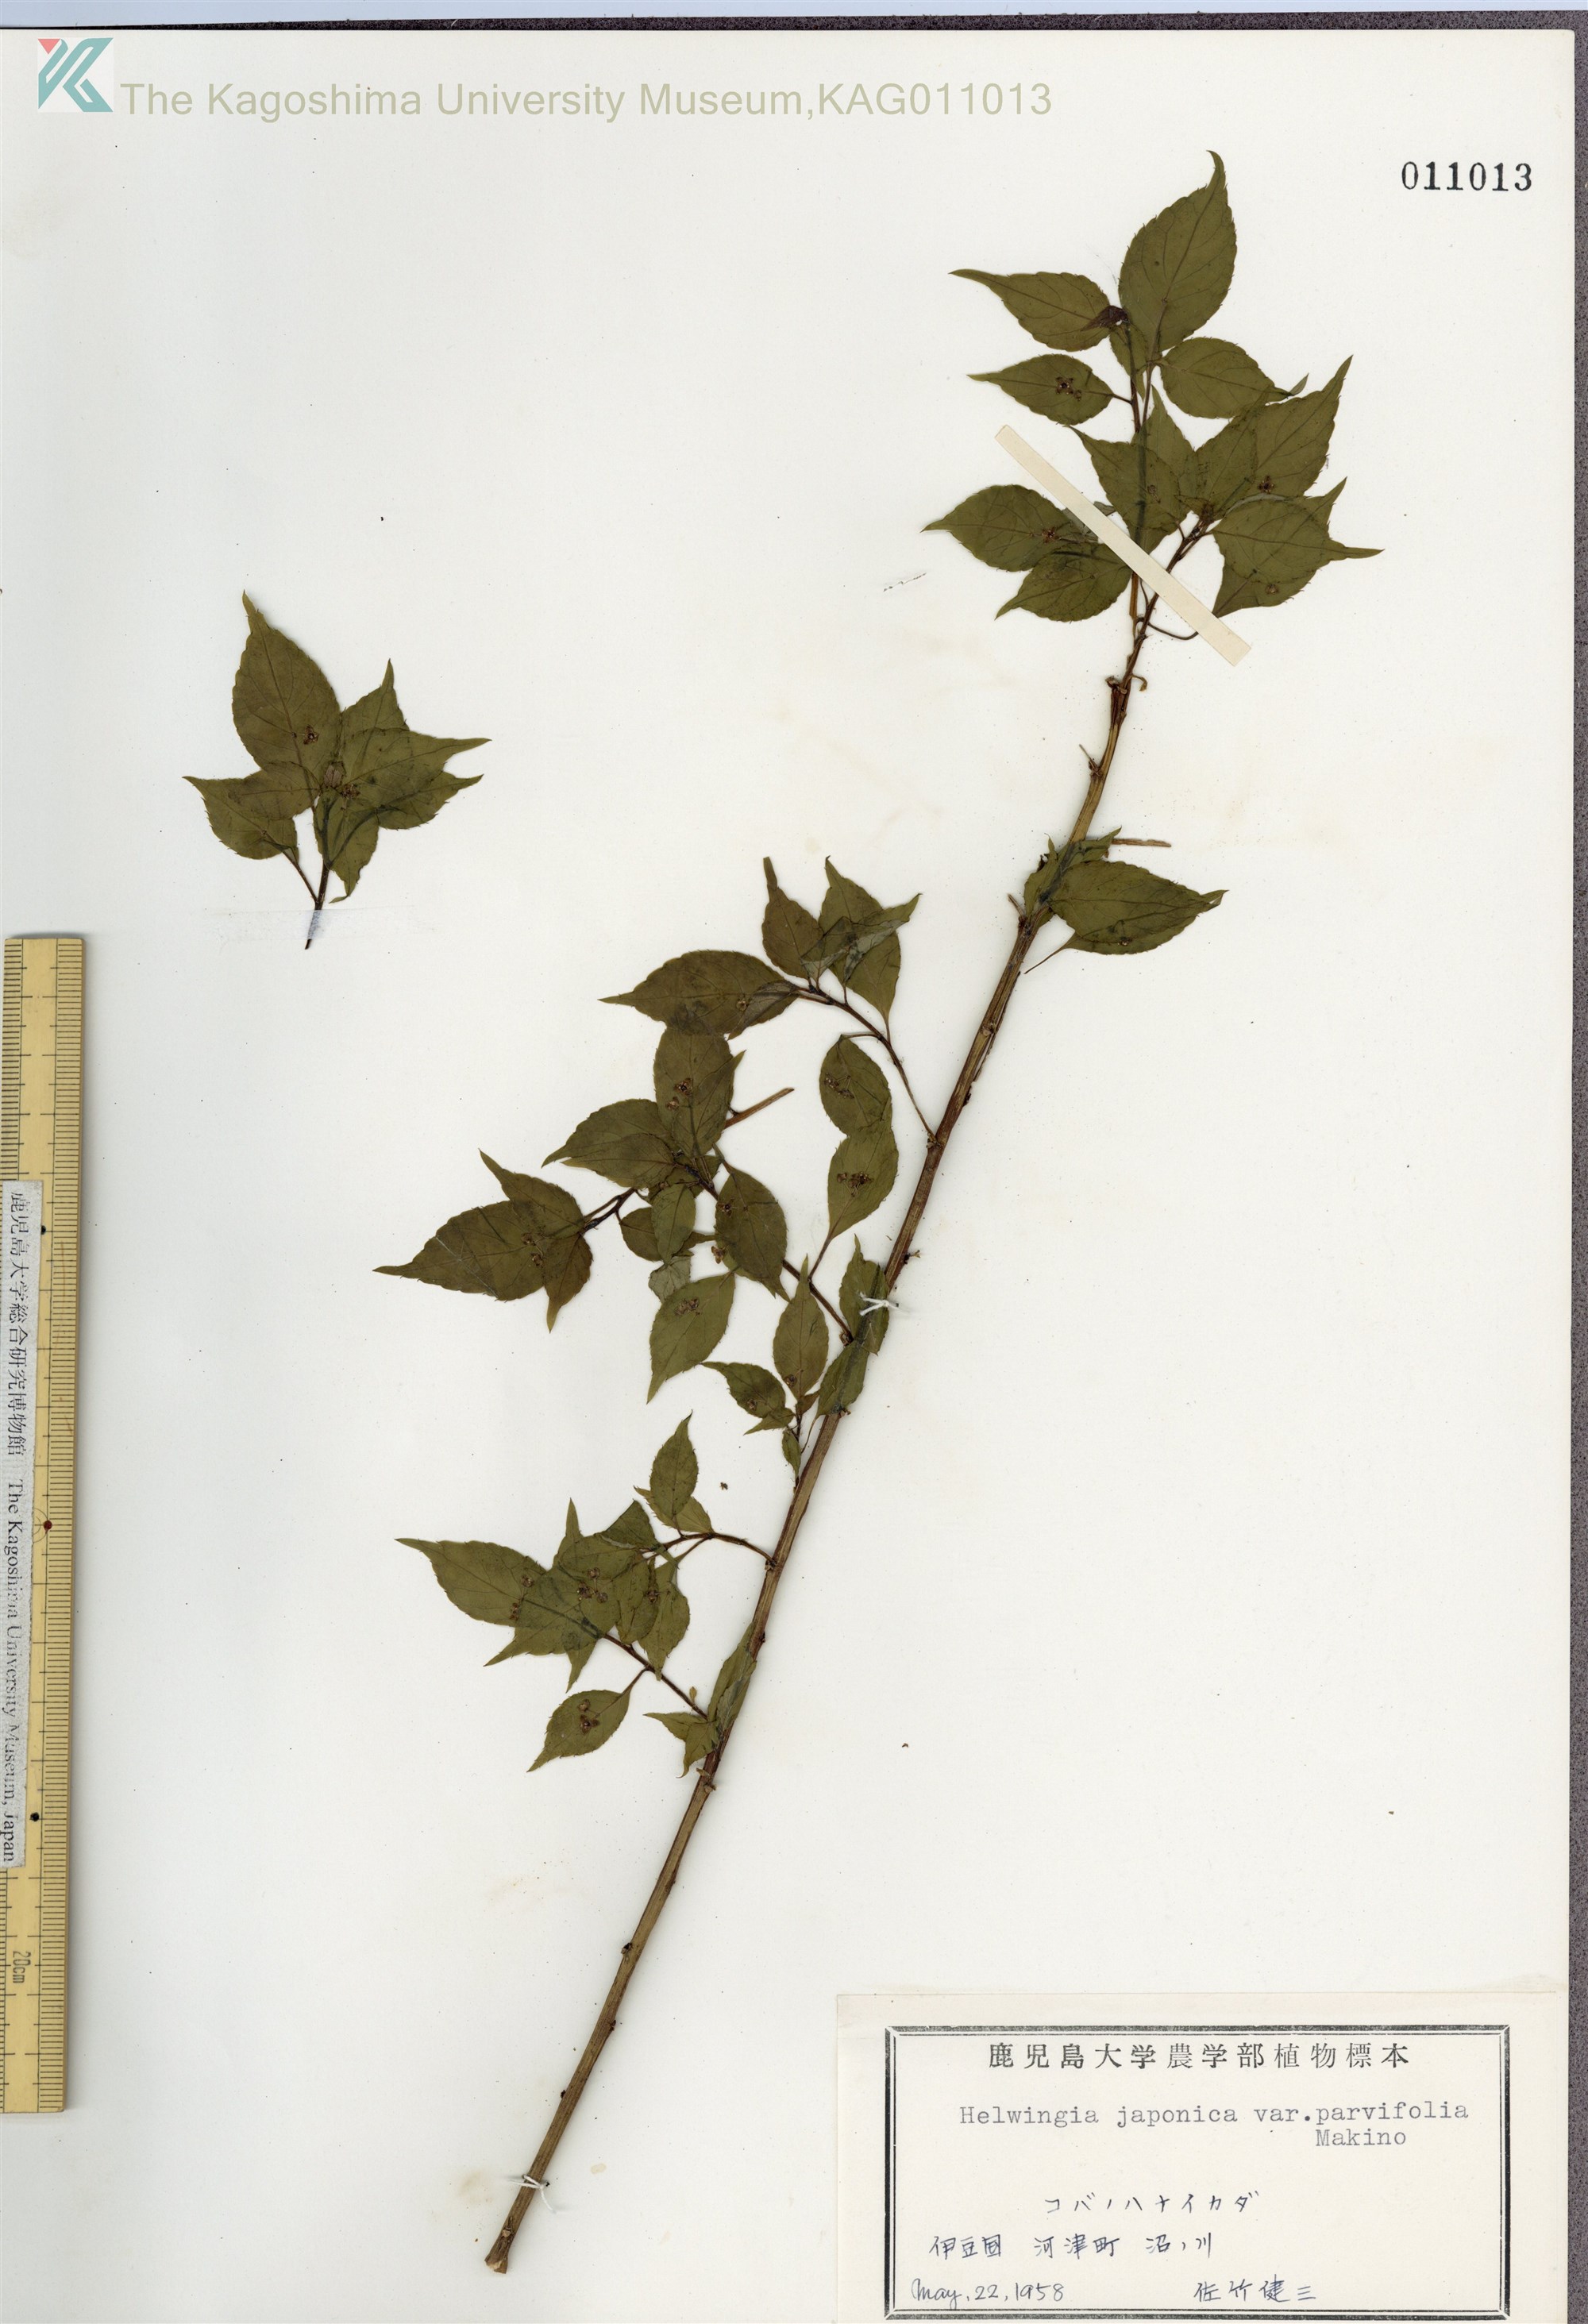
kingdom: Plantae
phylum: Tracheophyta
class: Magnoliopsida
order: Aquifoliales
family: Helwingiaceae
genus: Helwingia
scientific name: Helwingia japonica
